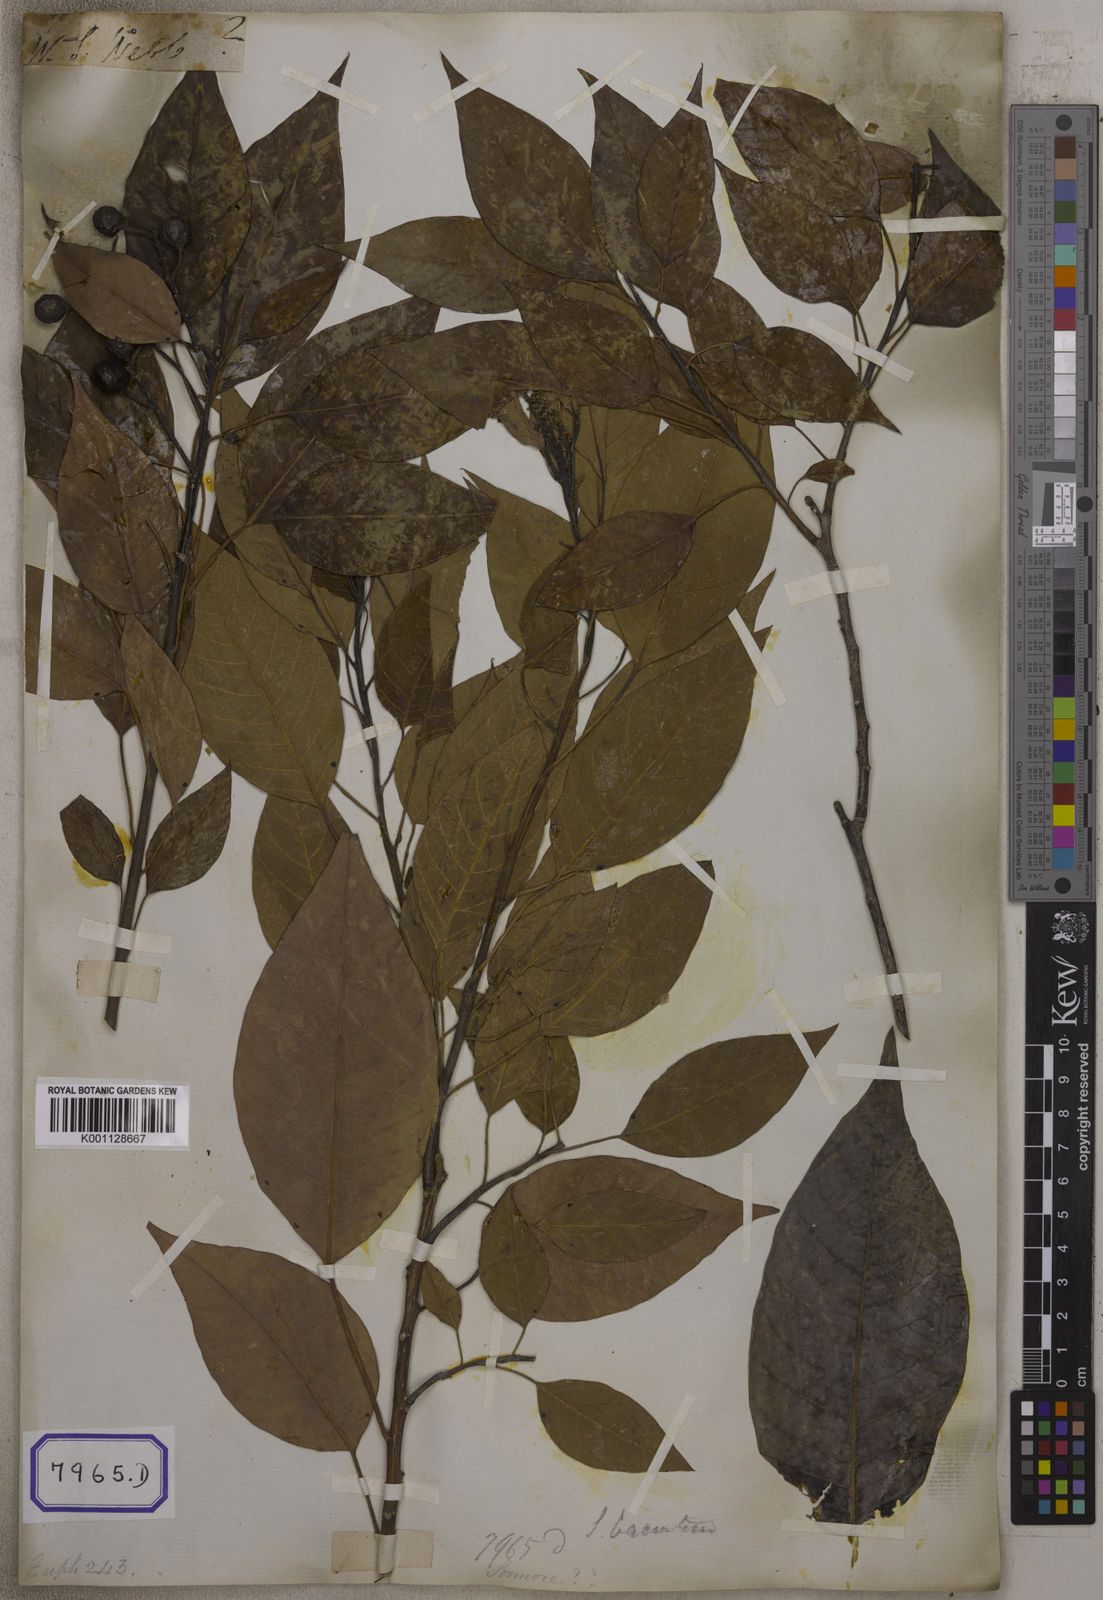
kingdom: Plantae
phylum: Tracheophyta
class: Magnoliopsida
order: Malpighiales
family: Euphorbiaceae
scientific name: Euphorbiaceae
